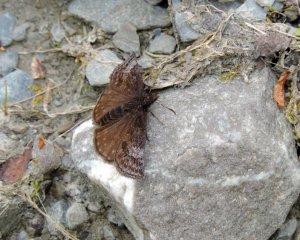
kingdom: Animalia
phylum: Arthropoda
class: Insecta
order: Lepidoptera
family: Hesperiidae
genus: Erynnis
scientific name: Erynnis icelus
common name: Dreamy Duskywing
